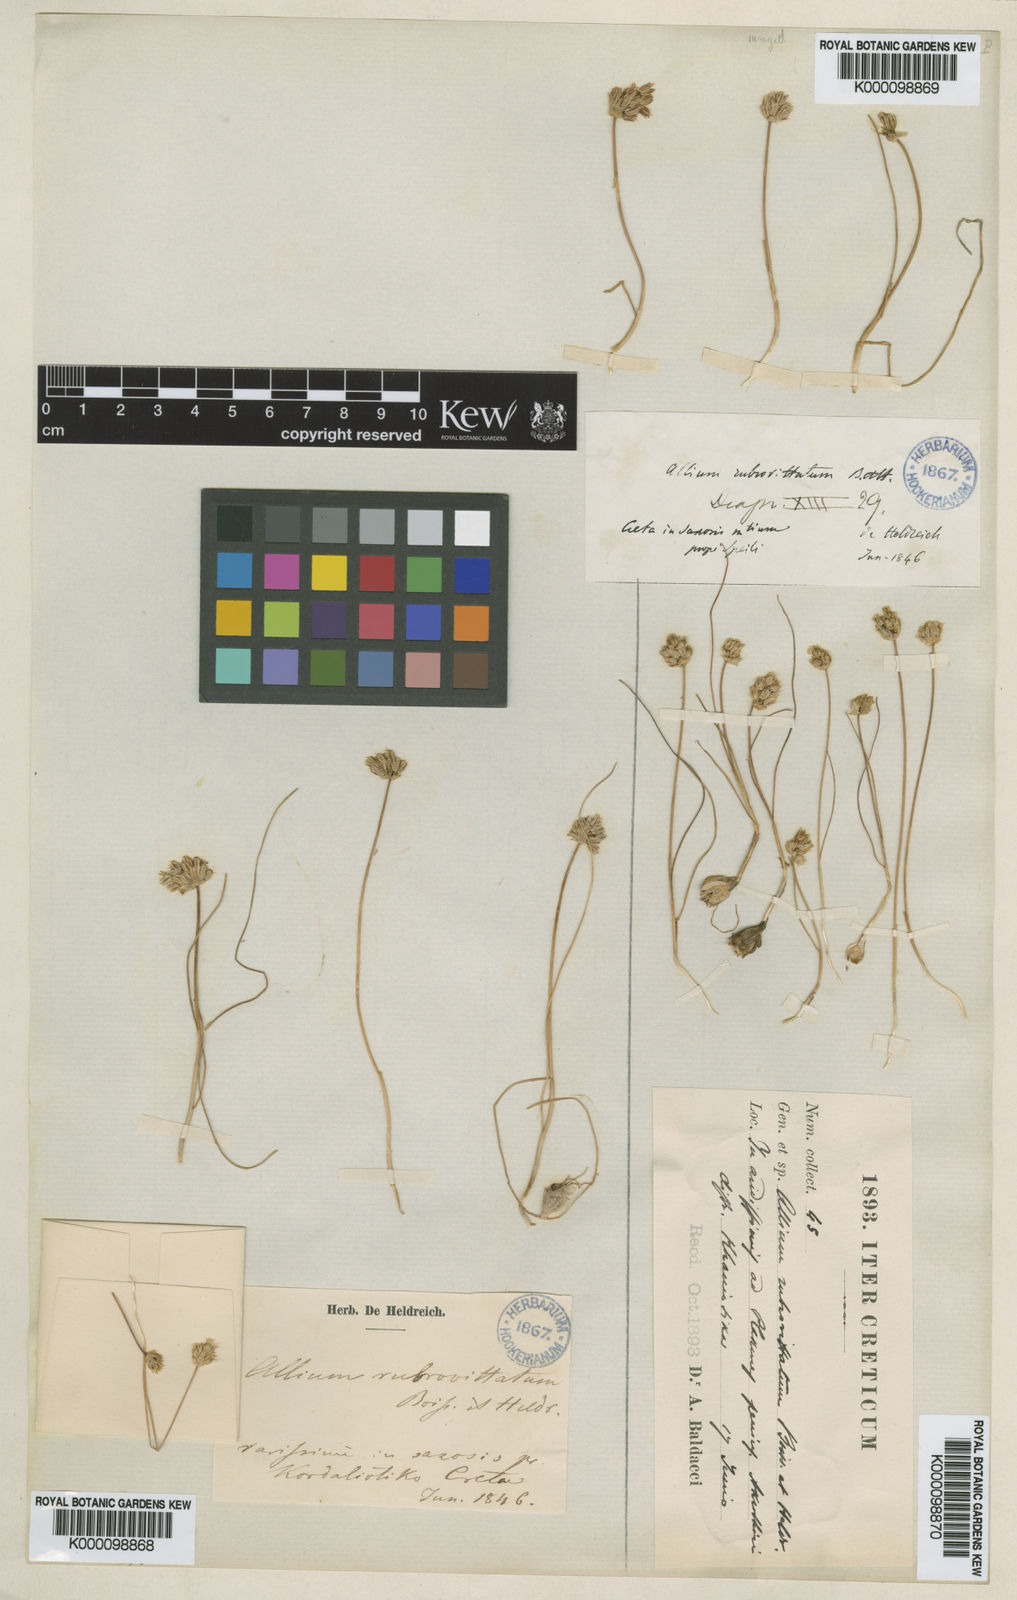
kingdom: Plantae
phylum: Tracheophyta
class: Liliopsida
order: Asparagales
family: Amaryllidaceae
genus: Allium
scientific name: Allium rubrovittatum
